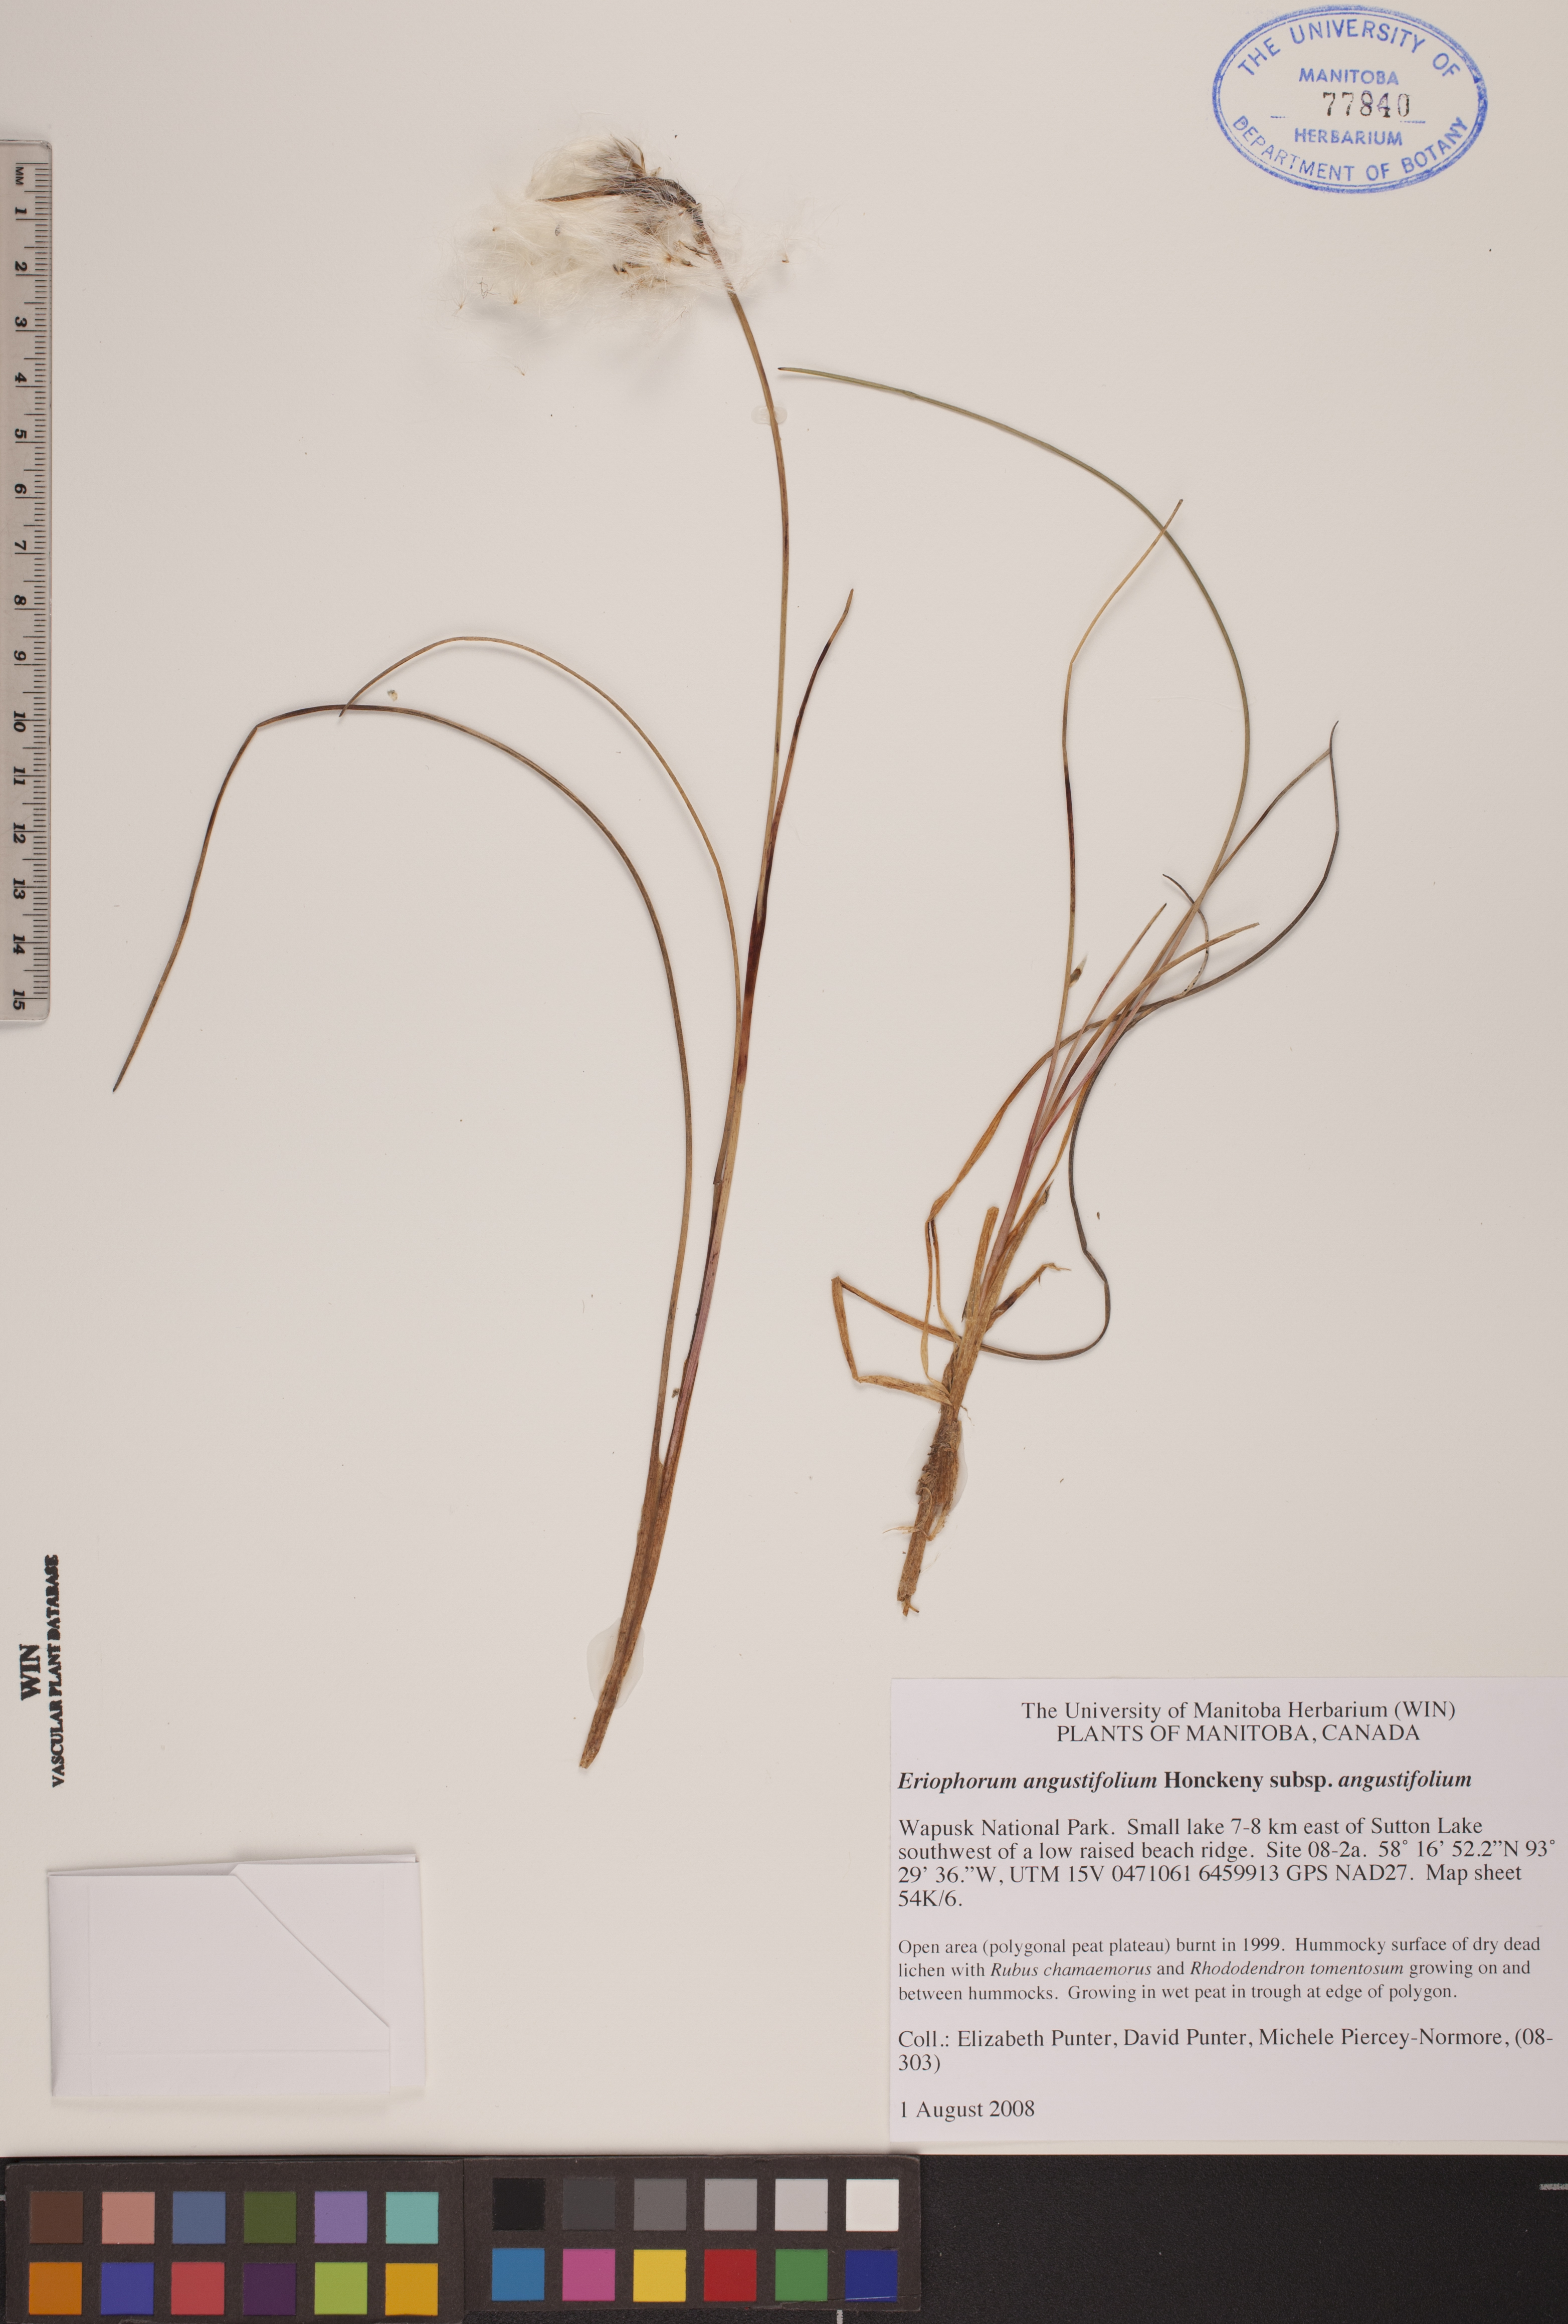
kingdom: Plantae
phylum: Tracheophyta
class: Liliopsida
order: Poales
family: Cyperaceae
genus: Eriophorum
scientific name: Eriophorum angustifolium
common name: Common cottongrass
